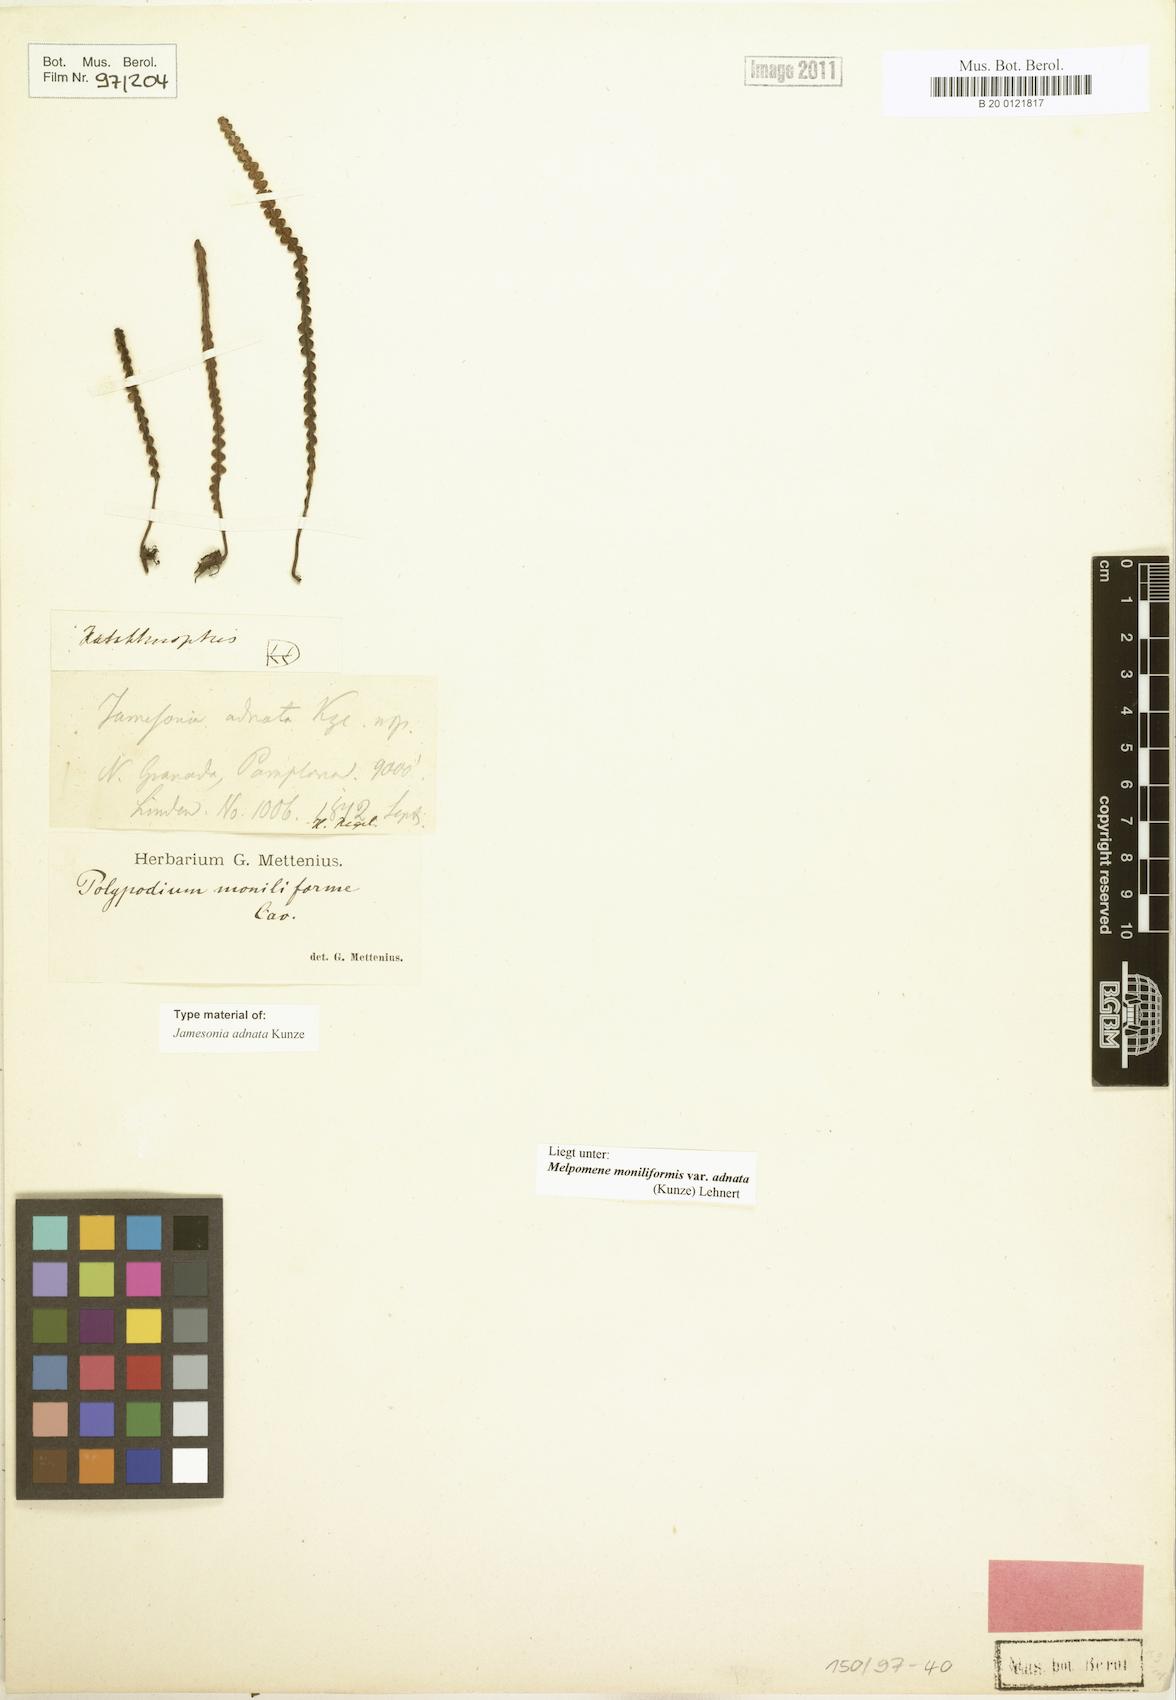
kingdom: Plantae
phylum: Tracheophyta
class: Polypodiopsida
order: Polypodiales
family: Polypodiaceae
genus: Melpomene
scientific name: Melpomene moniliformis
